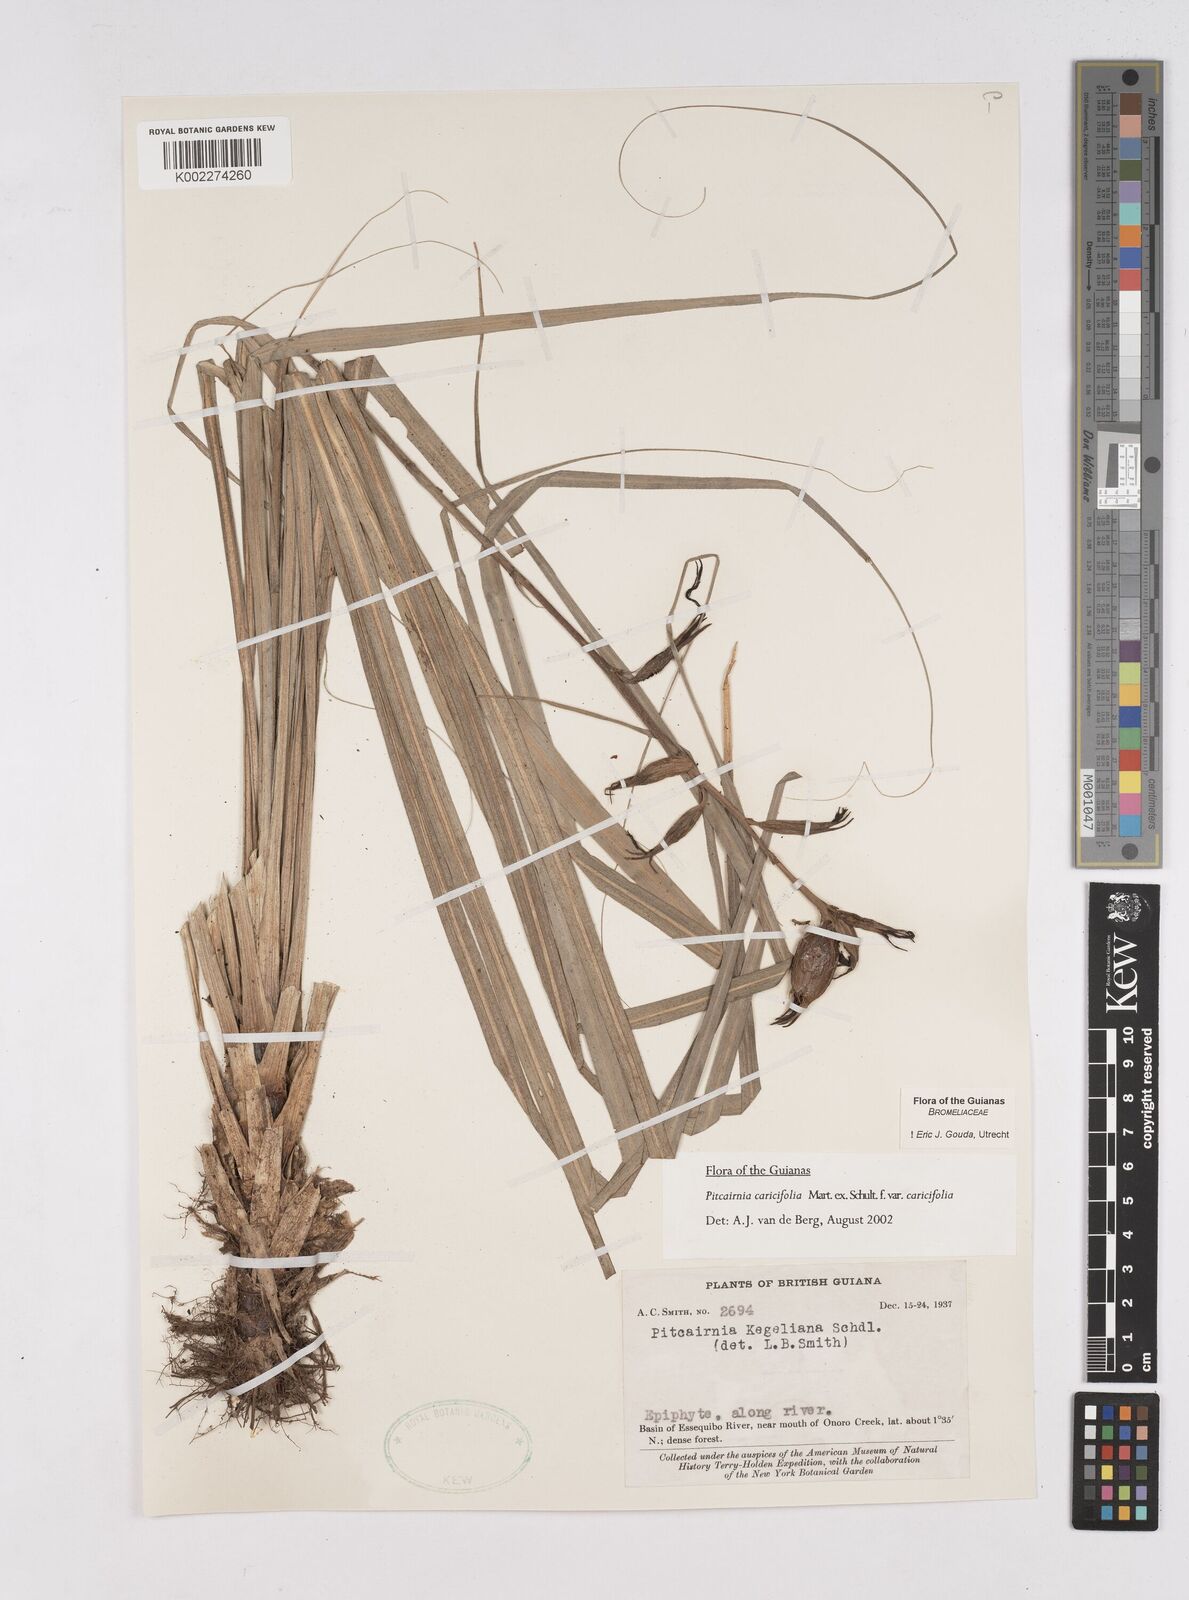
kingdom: Plantae
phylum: Tracheophyta
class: Liliopsida
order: Poales
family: Bromeliaceae
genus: Pitcairnia
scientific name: Pitcairnia caricifolia
